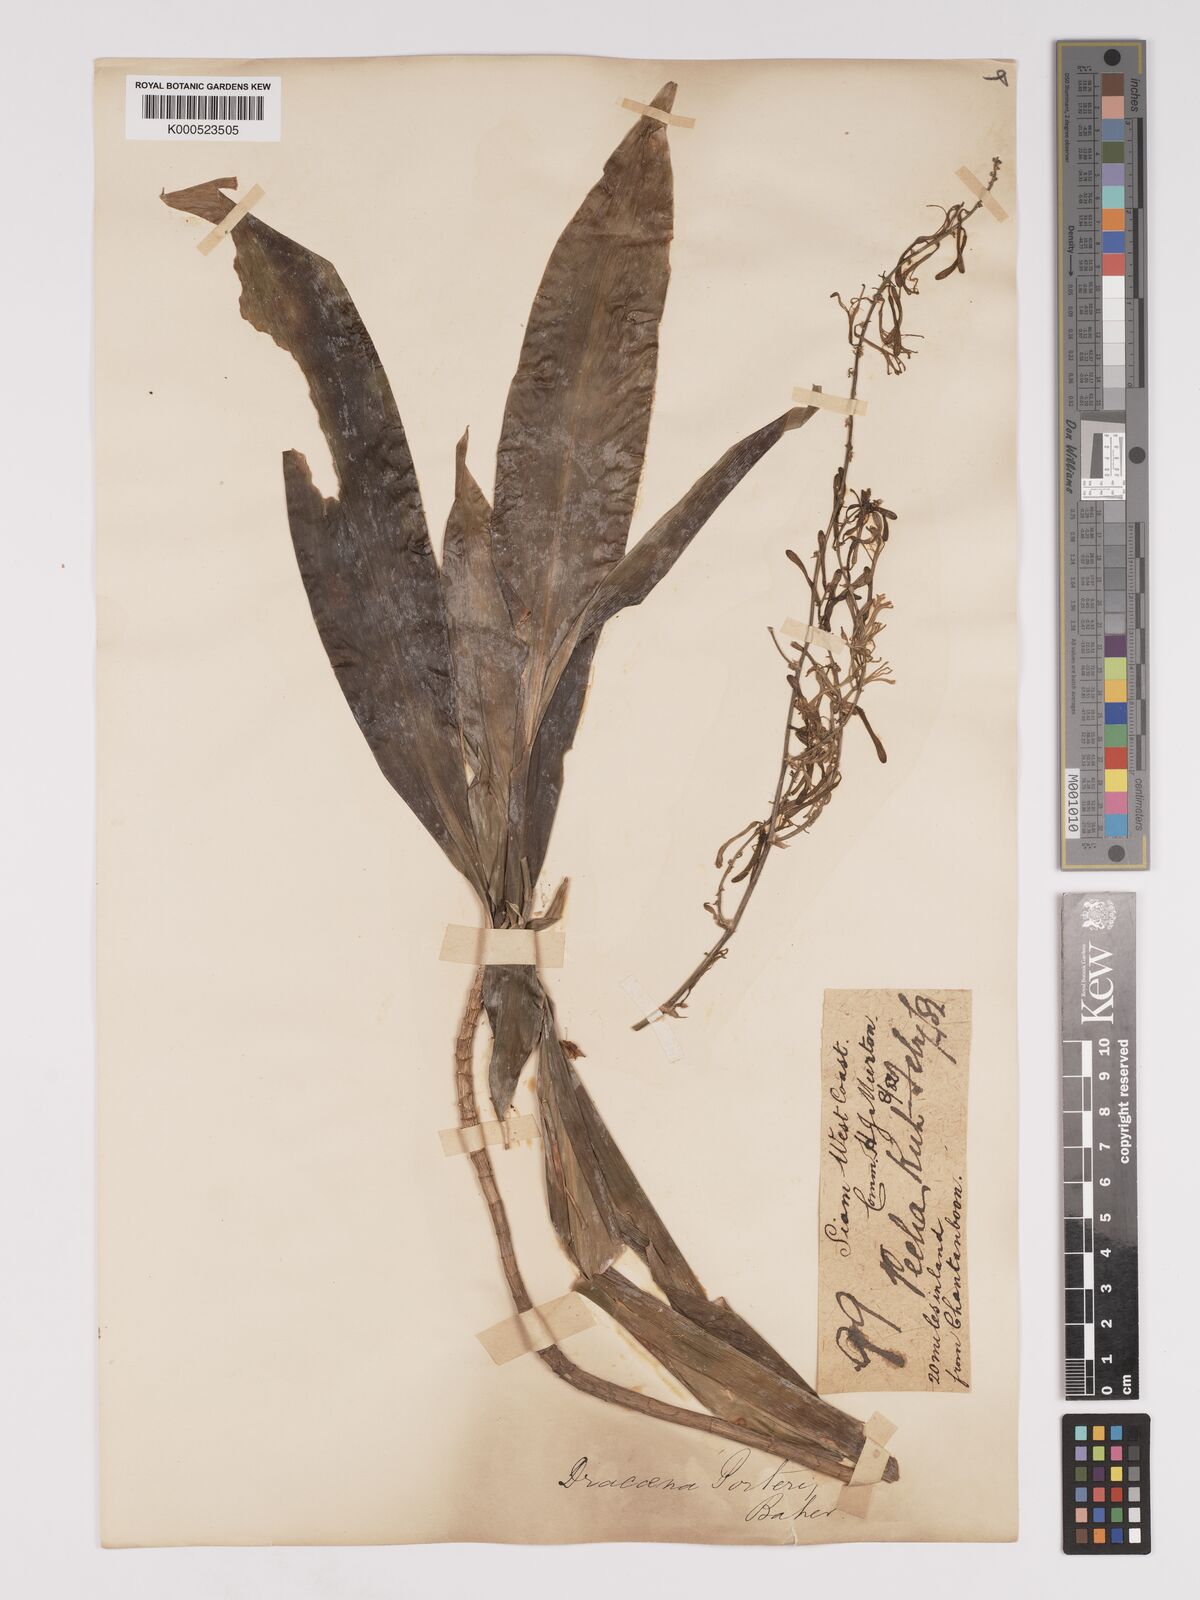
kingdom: Plantae
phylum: Tracheophyta
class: Liliopsida
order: Asparagales
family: Asparagaceae
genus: Dracaena
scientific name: Dracaena porteri
